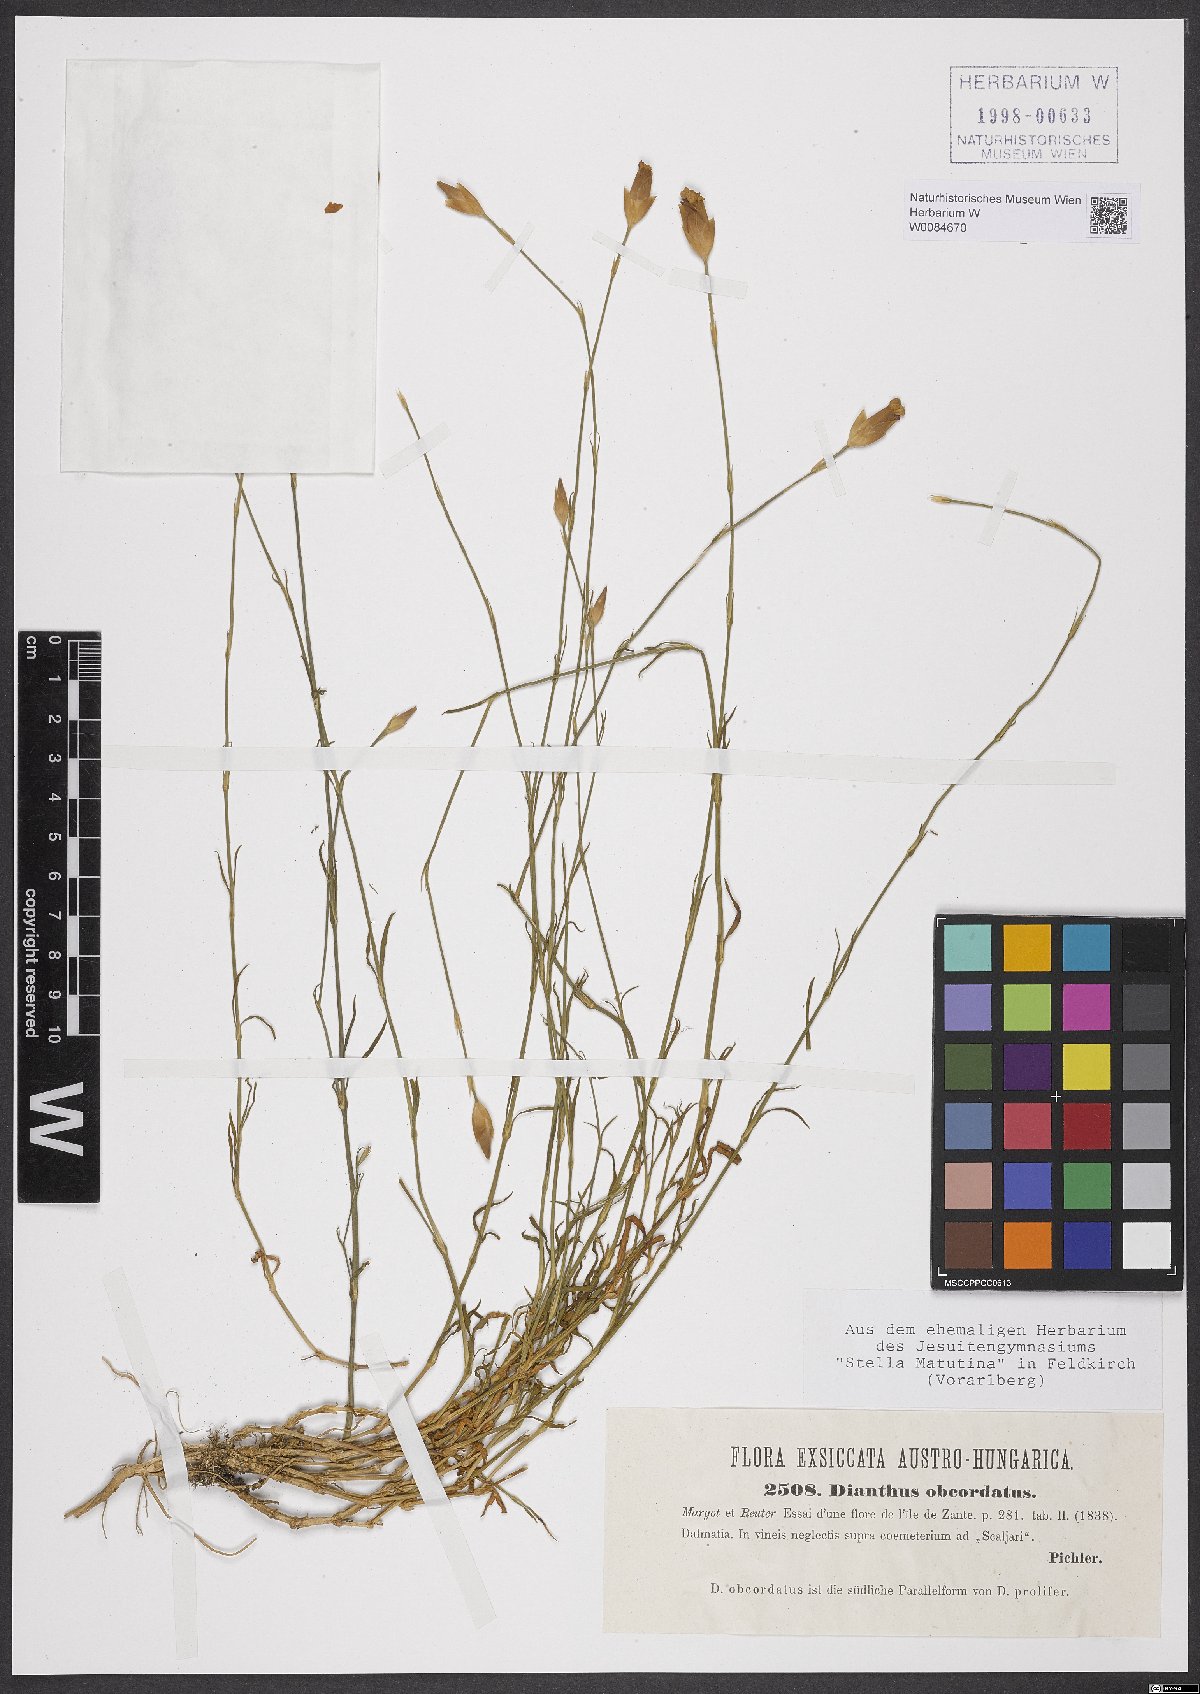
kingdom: Plantae
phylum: Tracheophyta
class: Magnoliopsida
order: Caryophyllales
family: Caryophyllaceae
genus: Petrorhagia
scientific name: Petrorhagia obcordata
